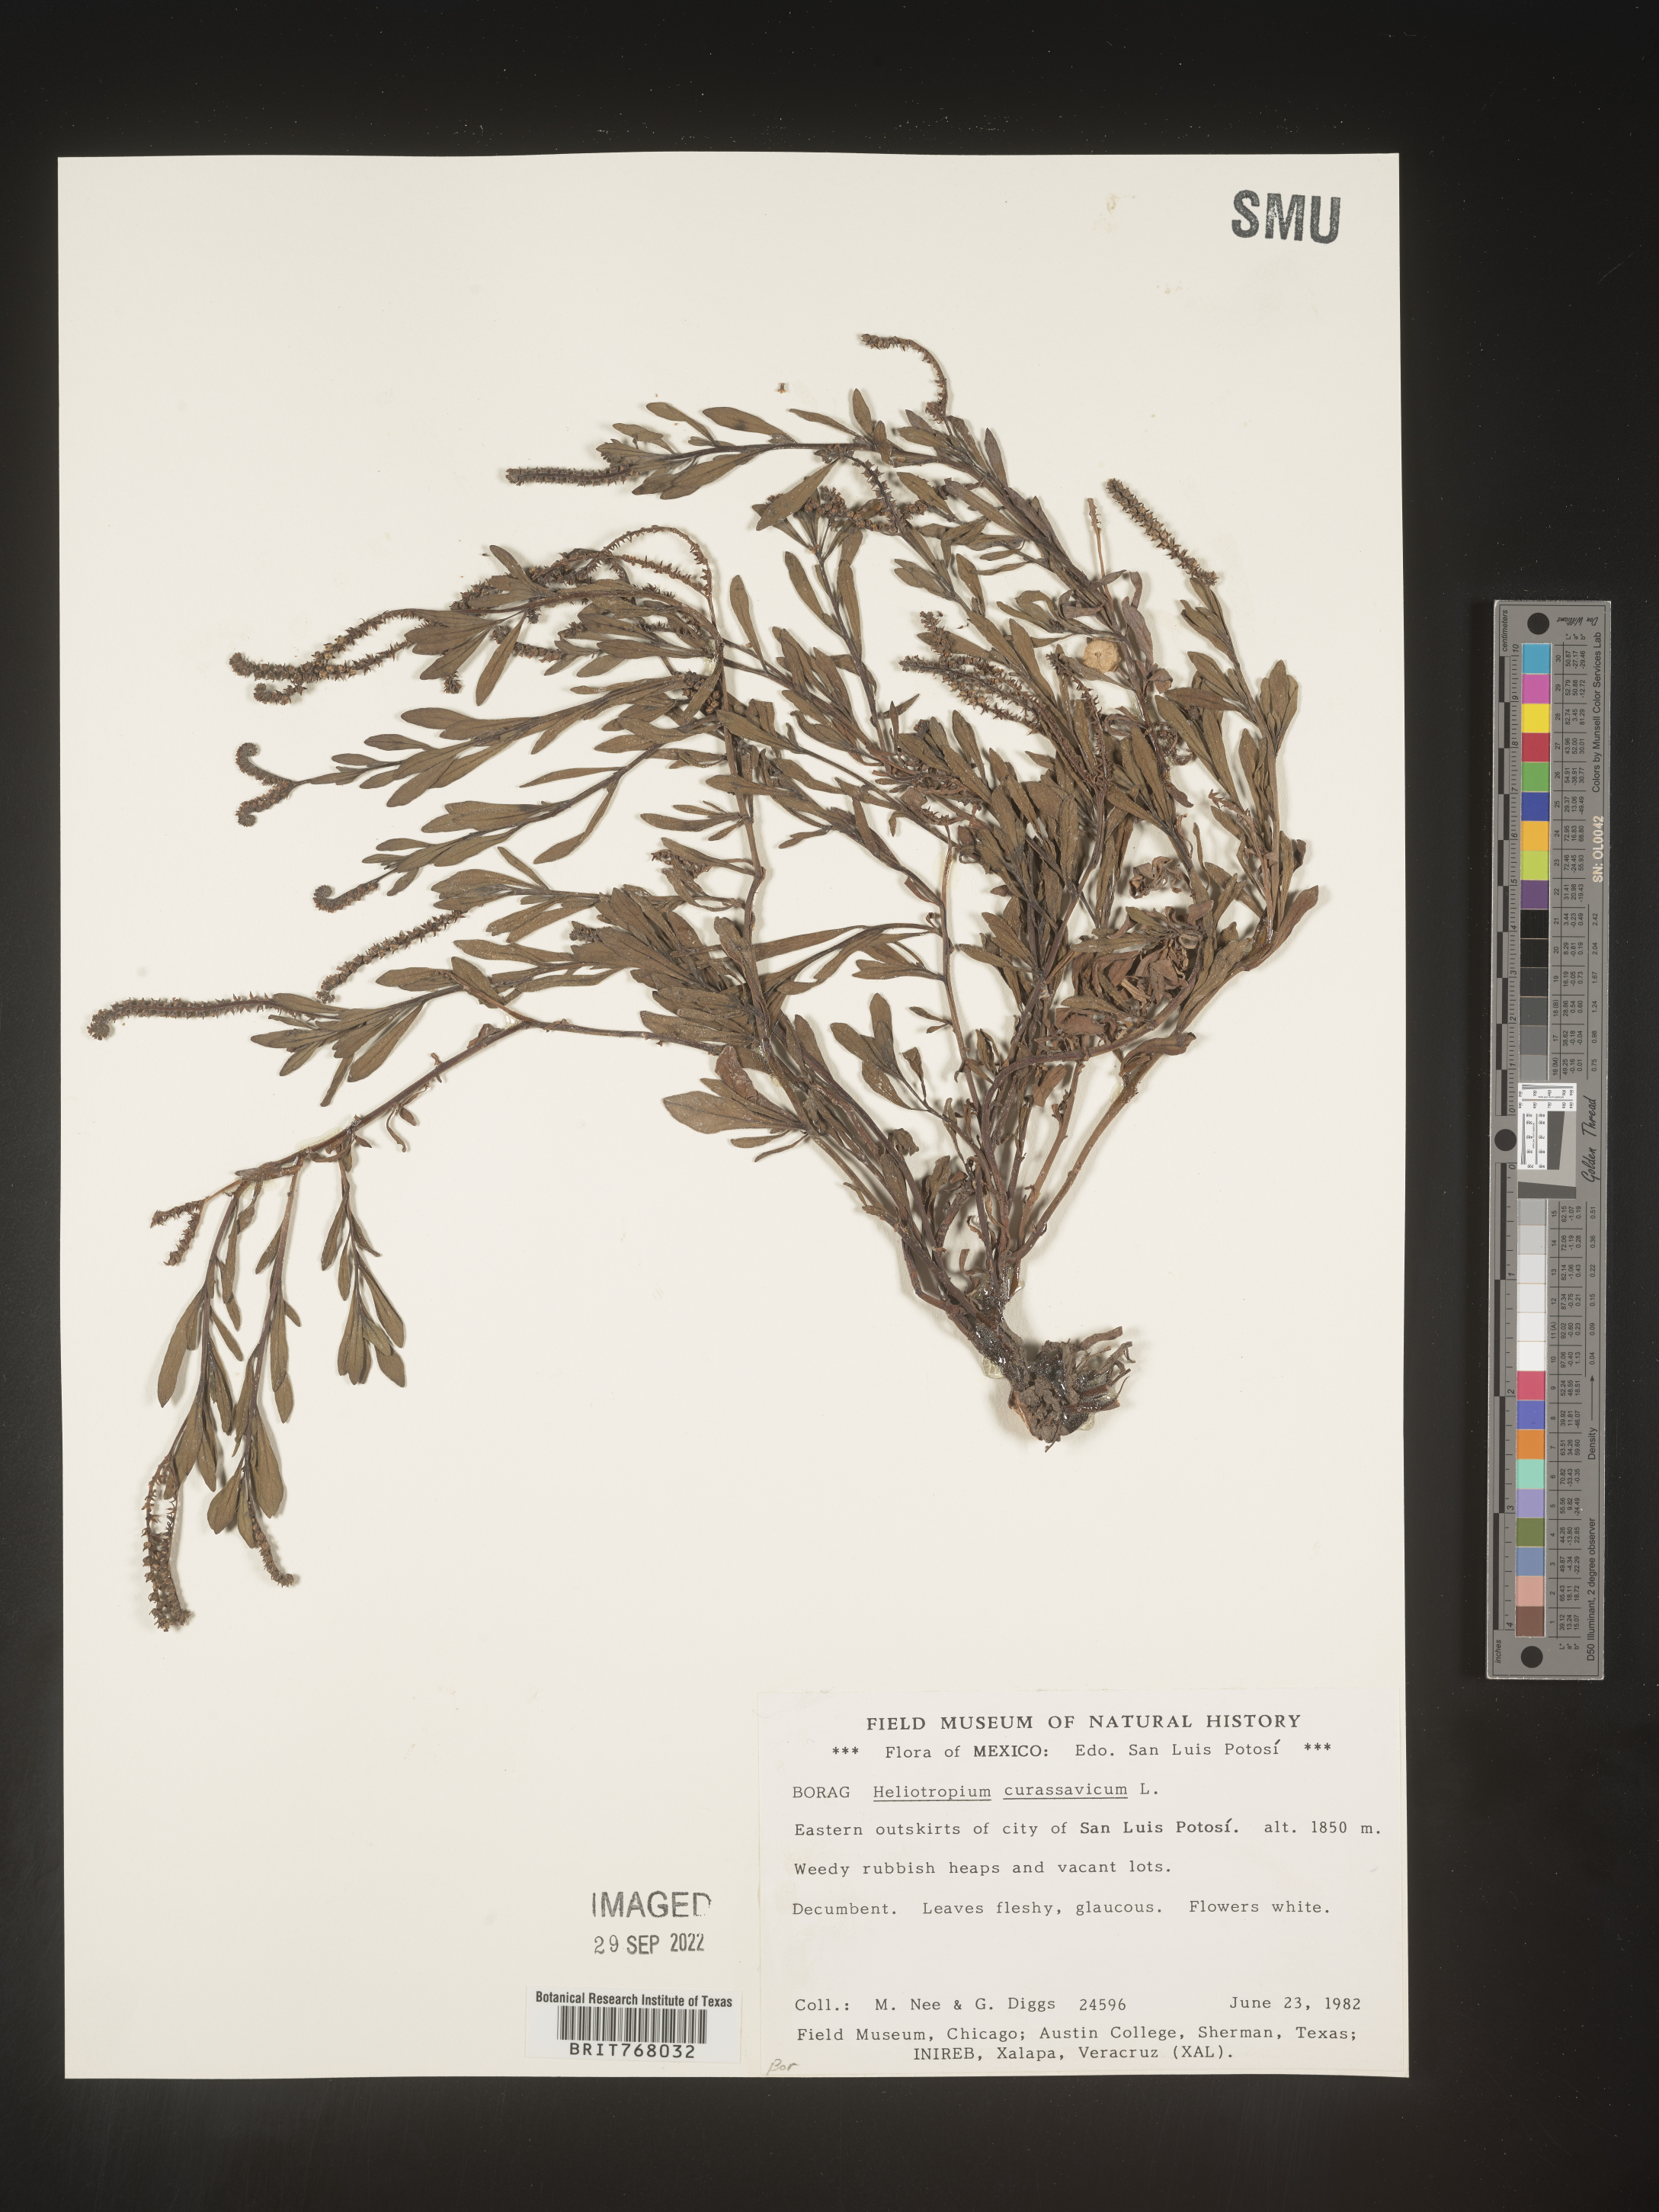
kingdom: Plantae
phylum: Tracheophyta
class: Magnoliopsida
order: Boraginales
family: Heliotropiaceae
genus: Heliotropium
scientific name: Heliotropium curassavicum
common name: Seaside heliotrope
